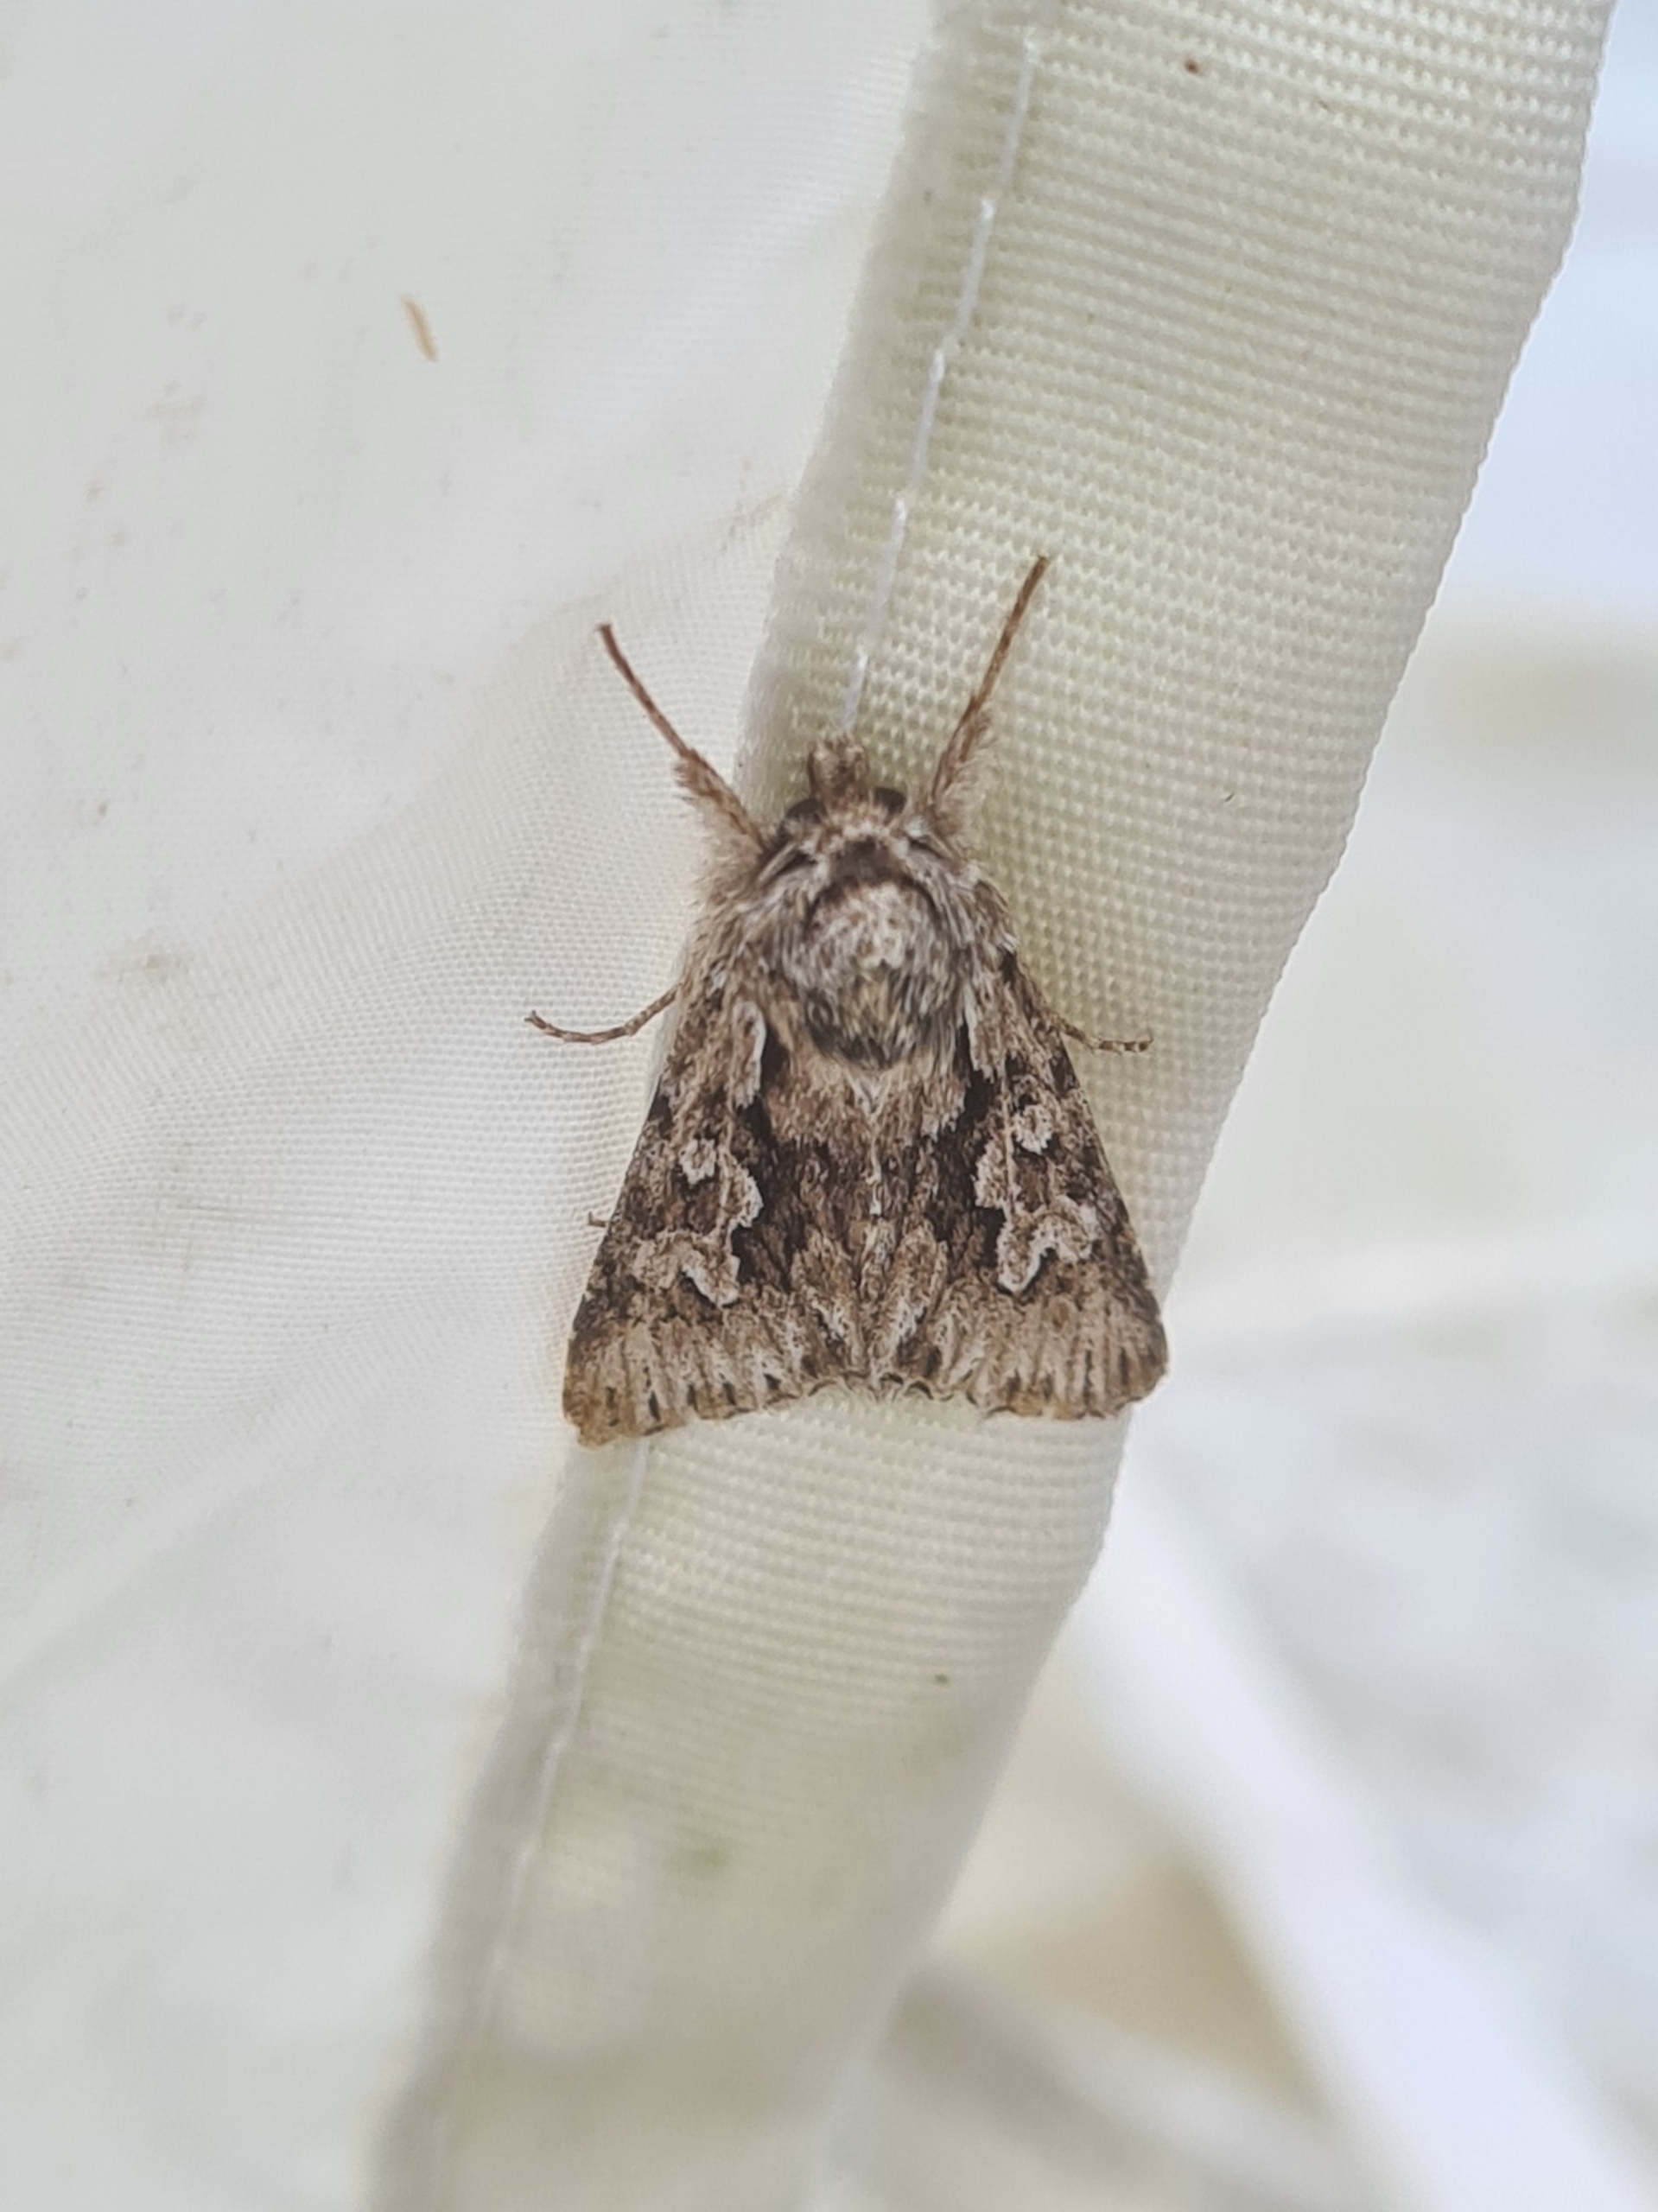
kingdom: Animalia
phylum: Arthropoda
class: Insecta
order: Lepidoptera
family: Noctuidae
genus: Xylocampa
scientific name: Xylocampa areola
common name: Gedeblad-ugle
